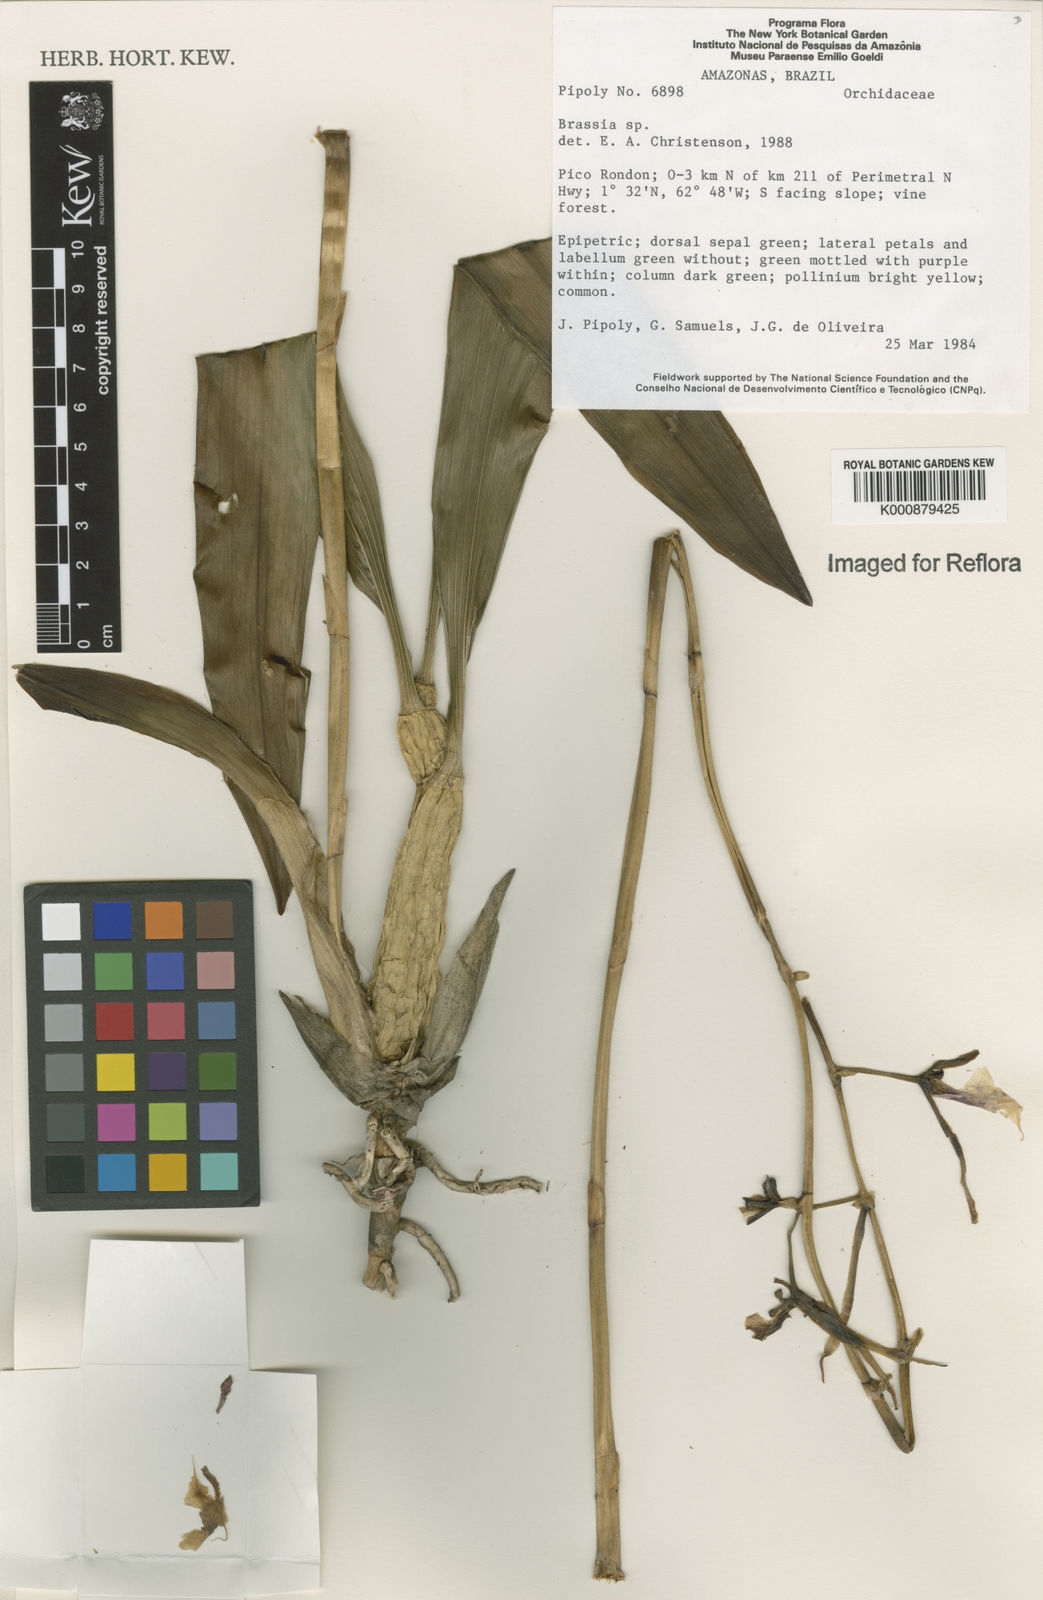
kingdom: Plantae
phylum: Tracheophyta
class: Liliopsida
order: Asparagales
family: Orchidaceae
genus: Brassia
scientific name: Brassia
